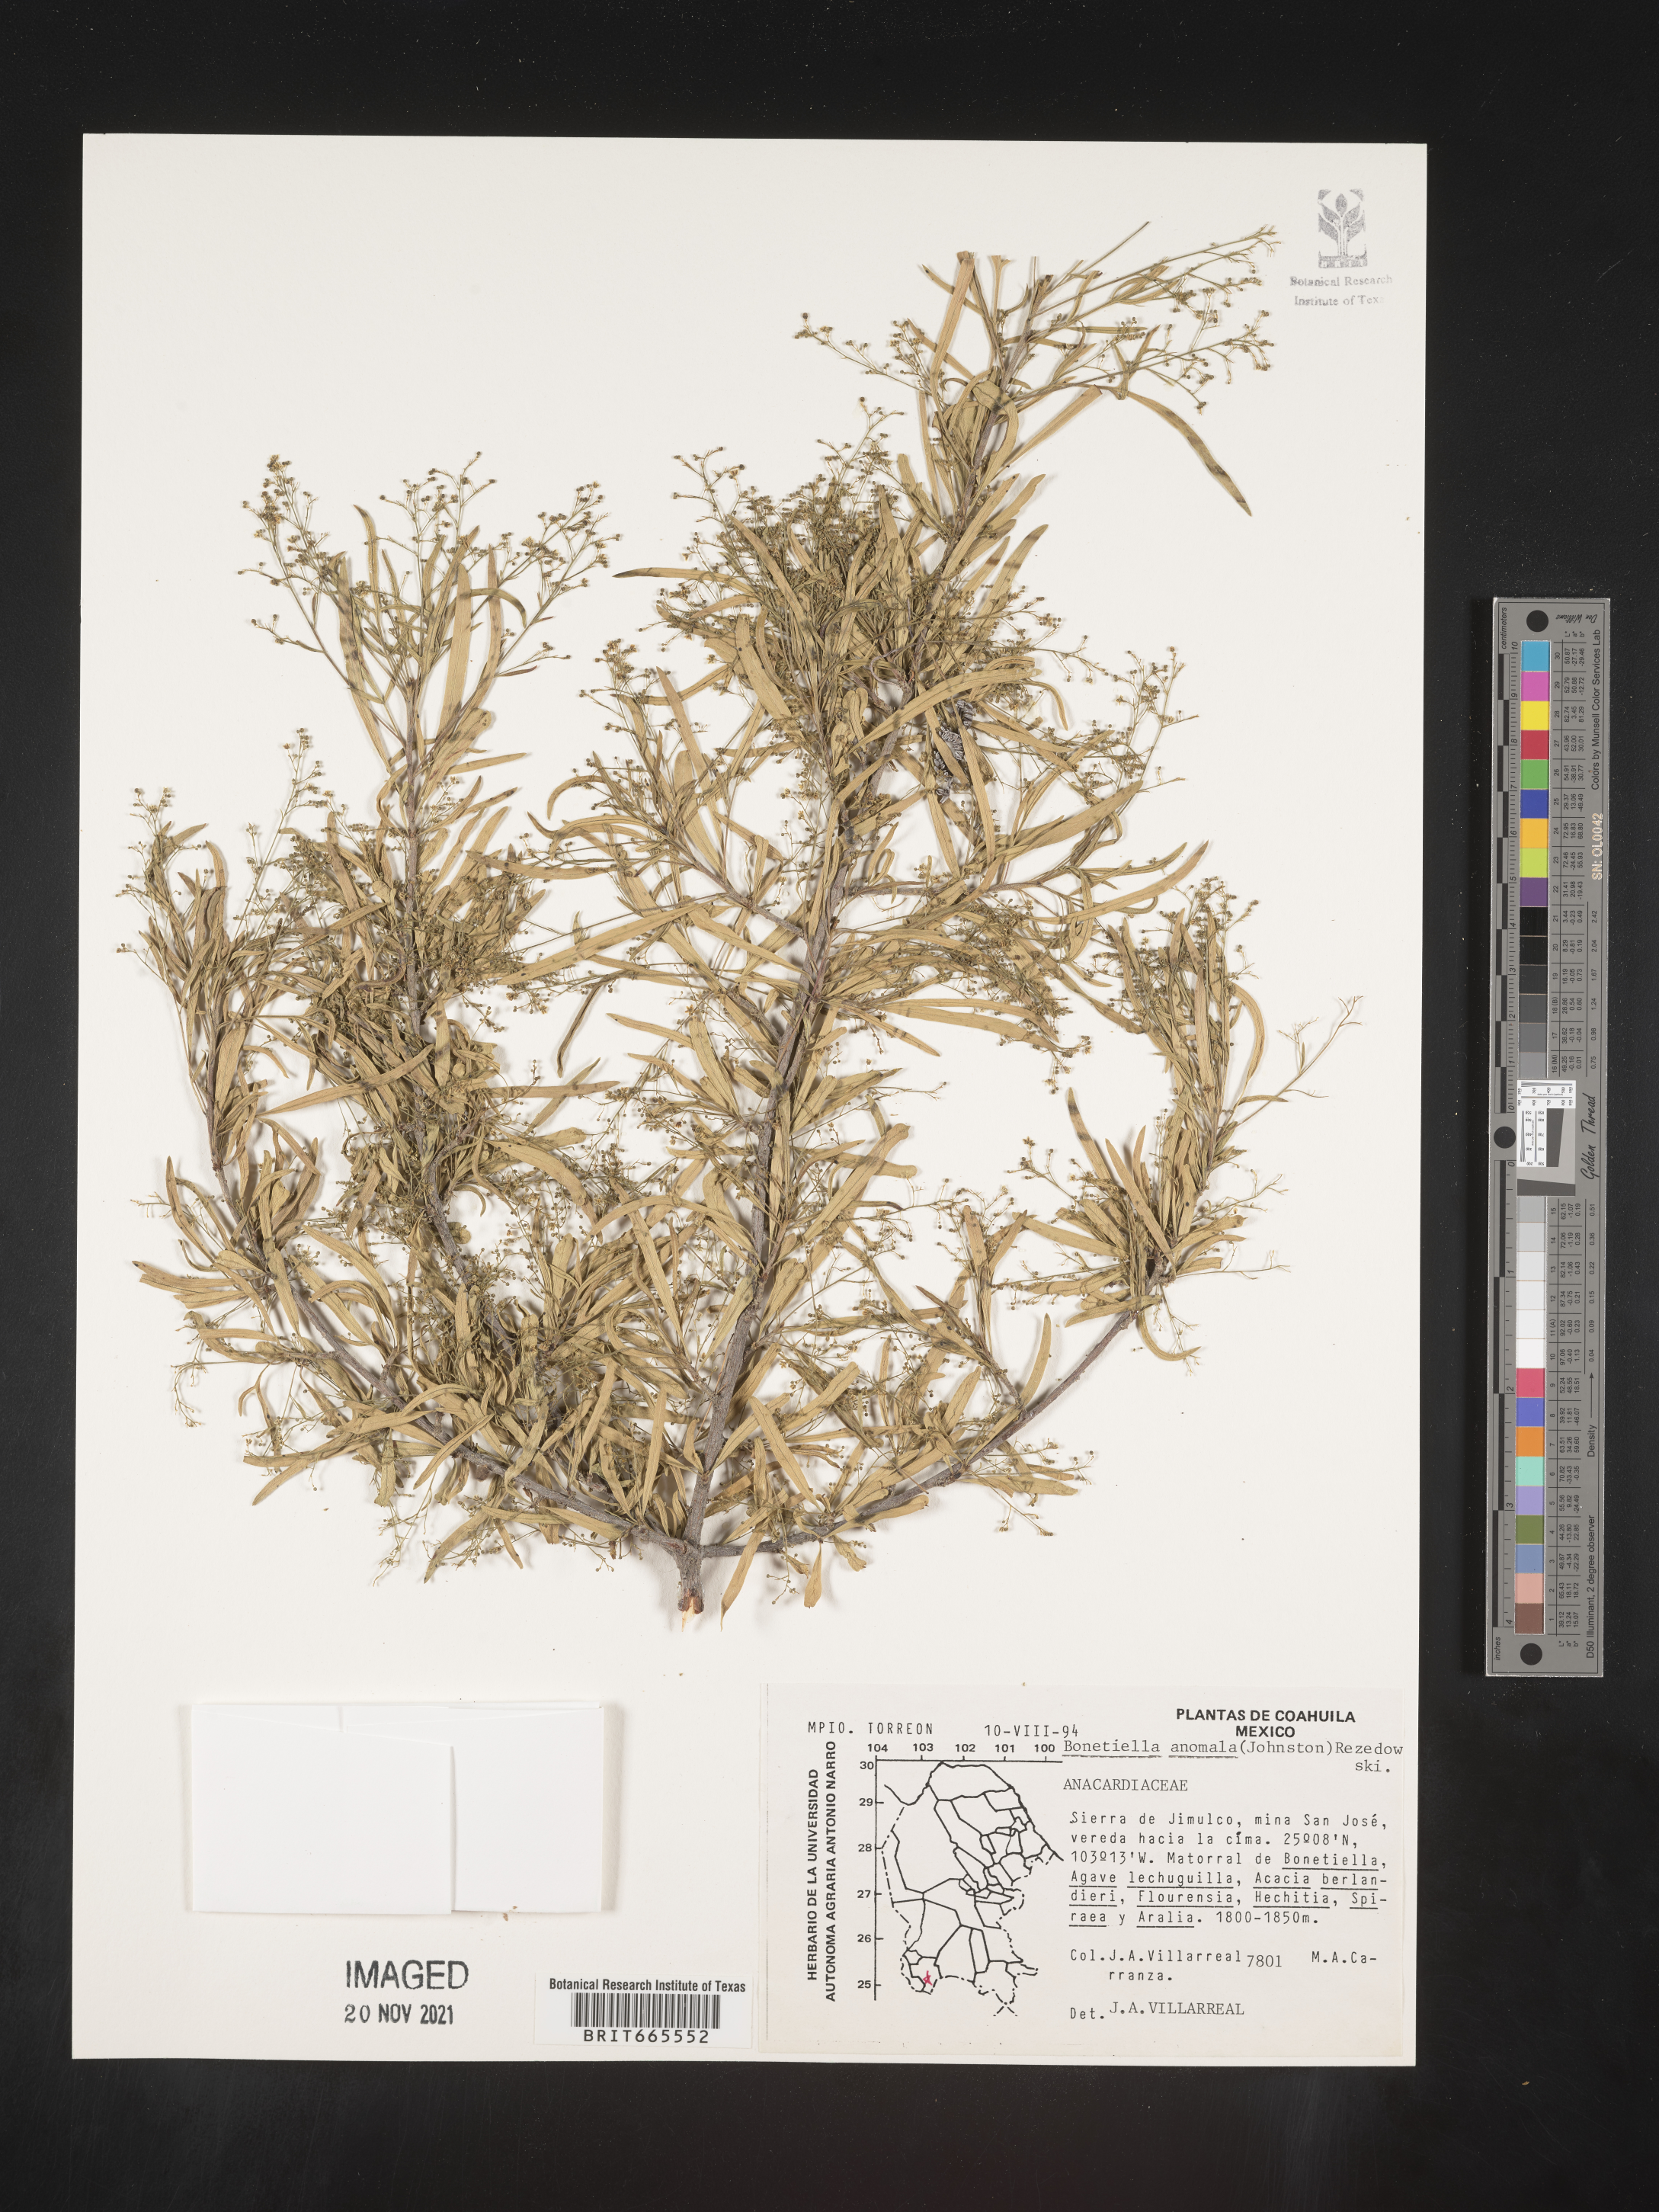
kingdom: Plantae
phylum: Tracheophyta
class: Magnoliopsida
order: Sapindales
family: Anacardiaceae
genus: Bonetiella
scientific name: Bonetiella
